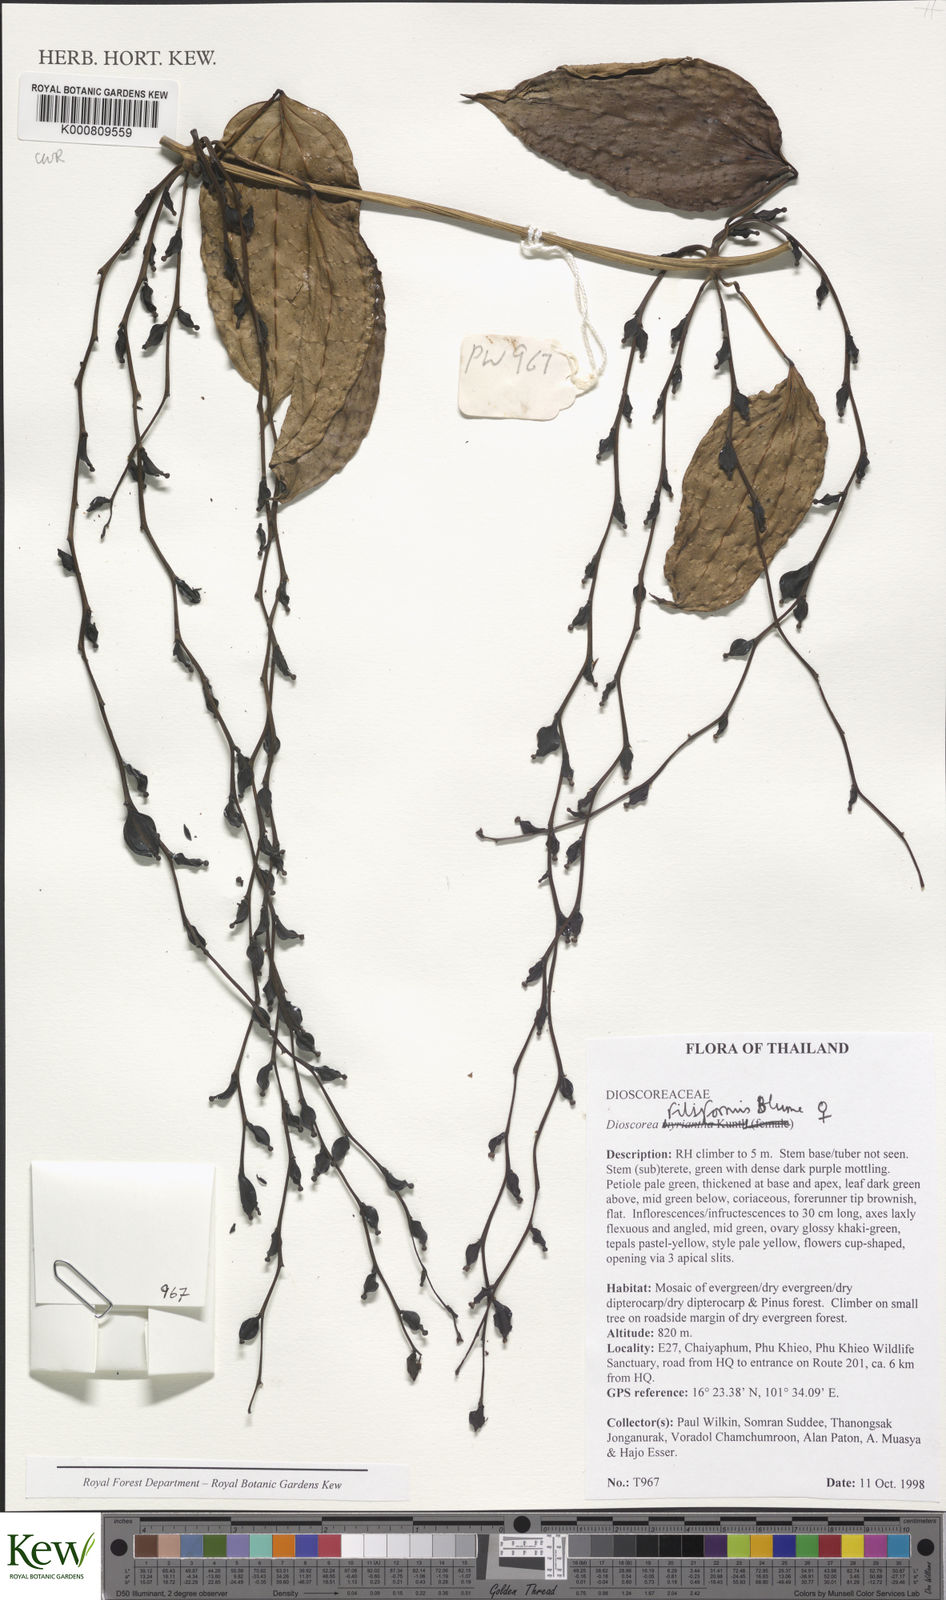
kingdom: Plantae
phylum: Tracheophyta
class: Liliopsida
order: Dioscoreales
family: Dioscoreaceae
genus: Dioscorea
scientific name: Dioscorea filiformis
